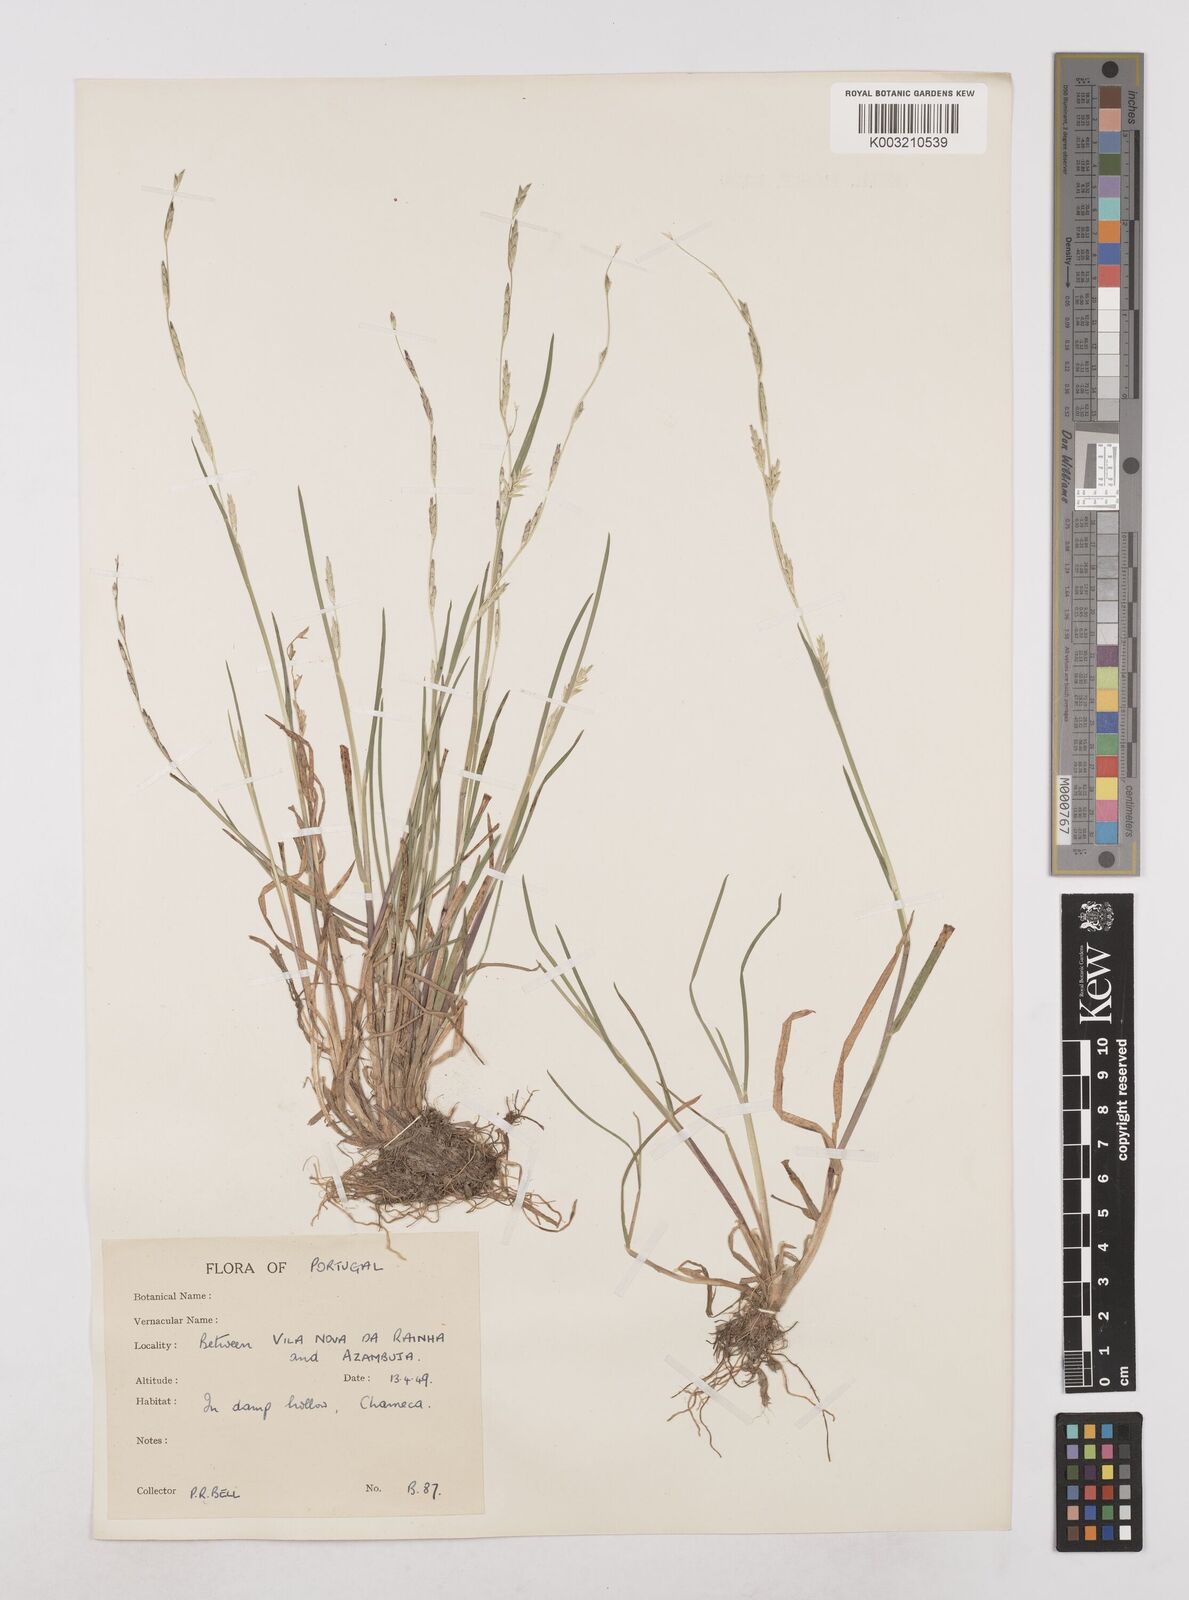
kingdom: Plantae
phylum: Tracheophyta
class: Liliopsida
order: Poales
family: Poaceae
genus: Glyceria
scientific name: Glyceria declinata
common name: Small sweet-grass
